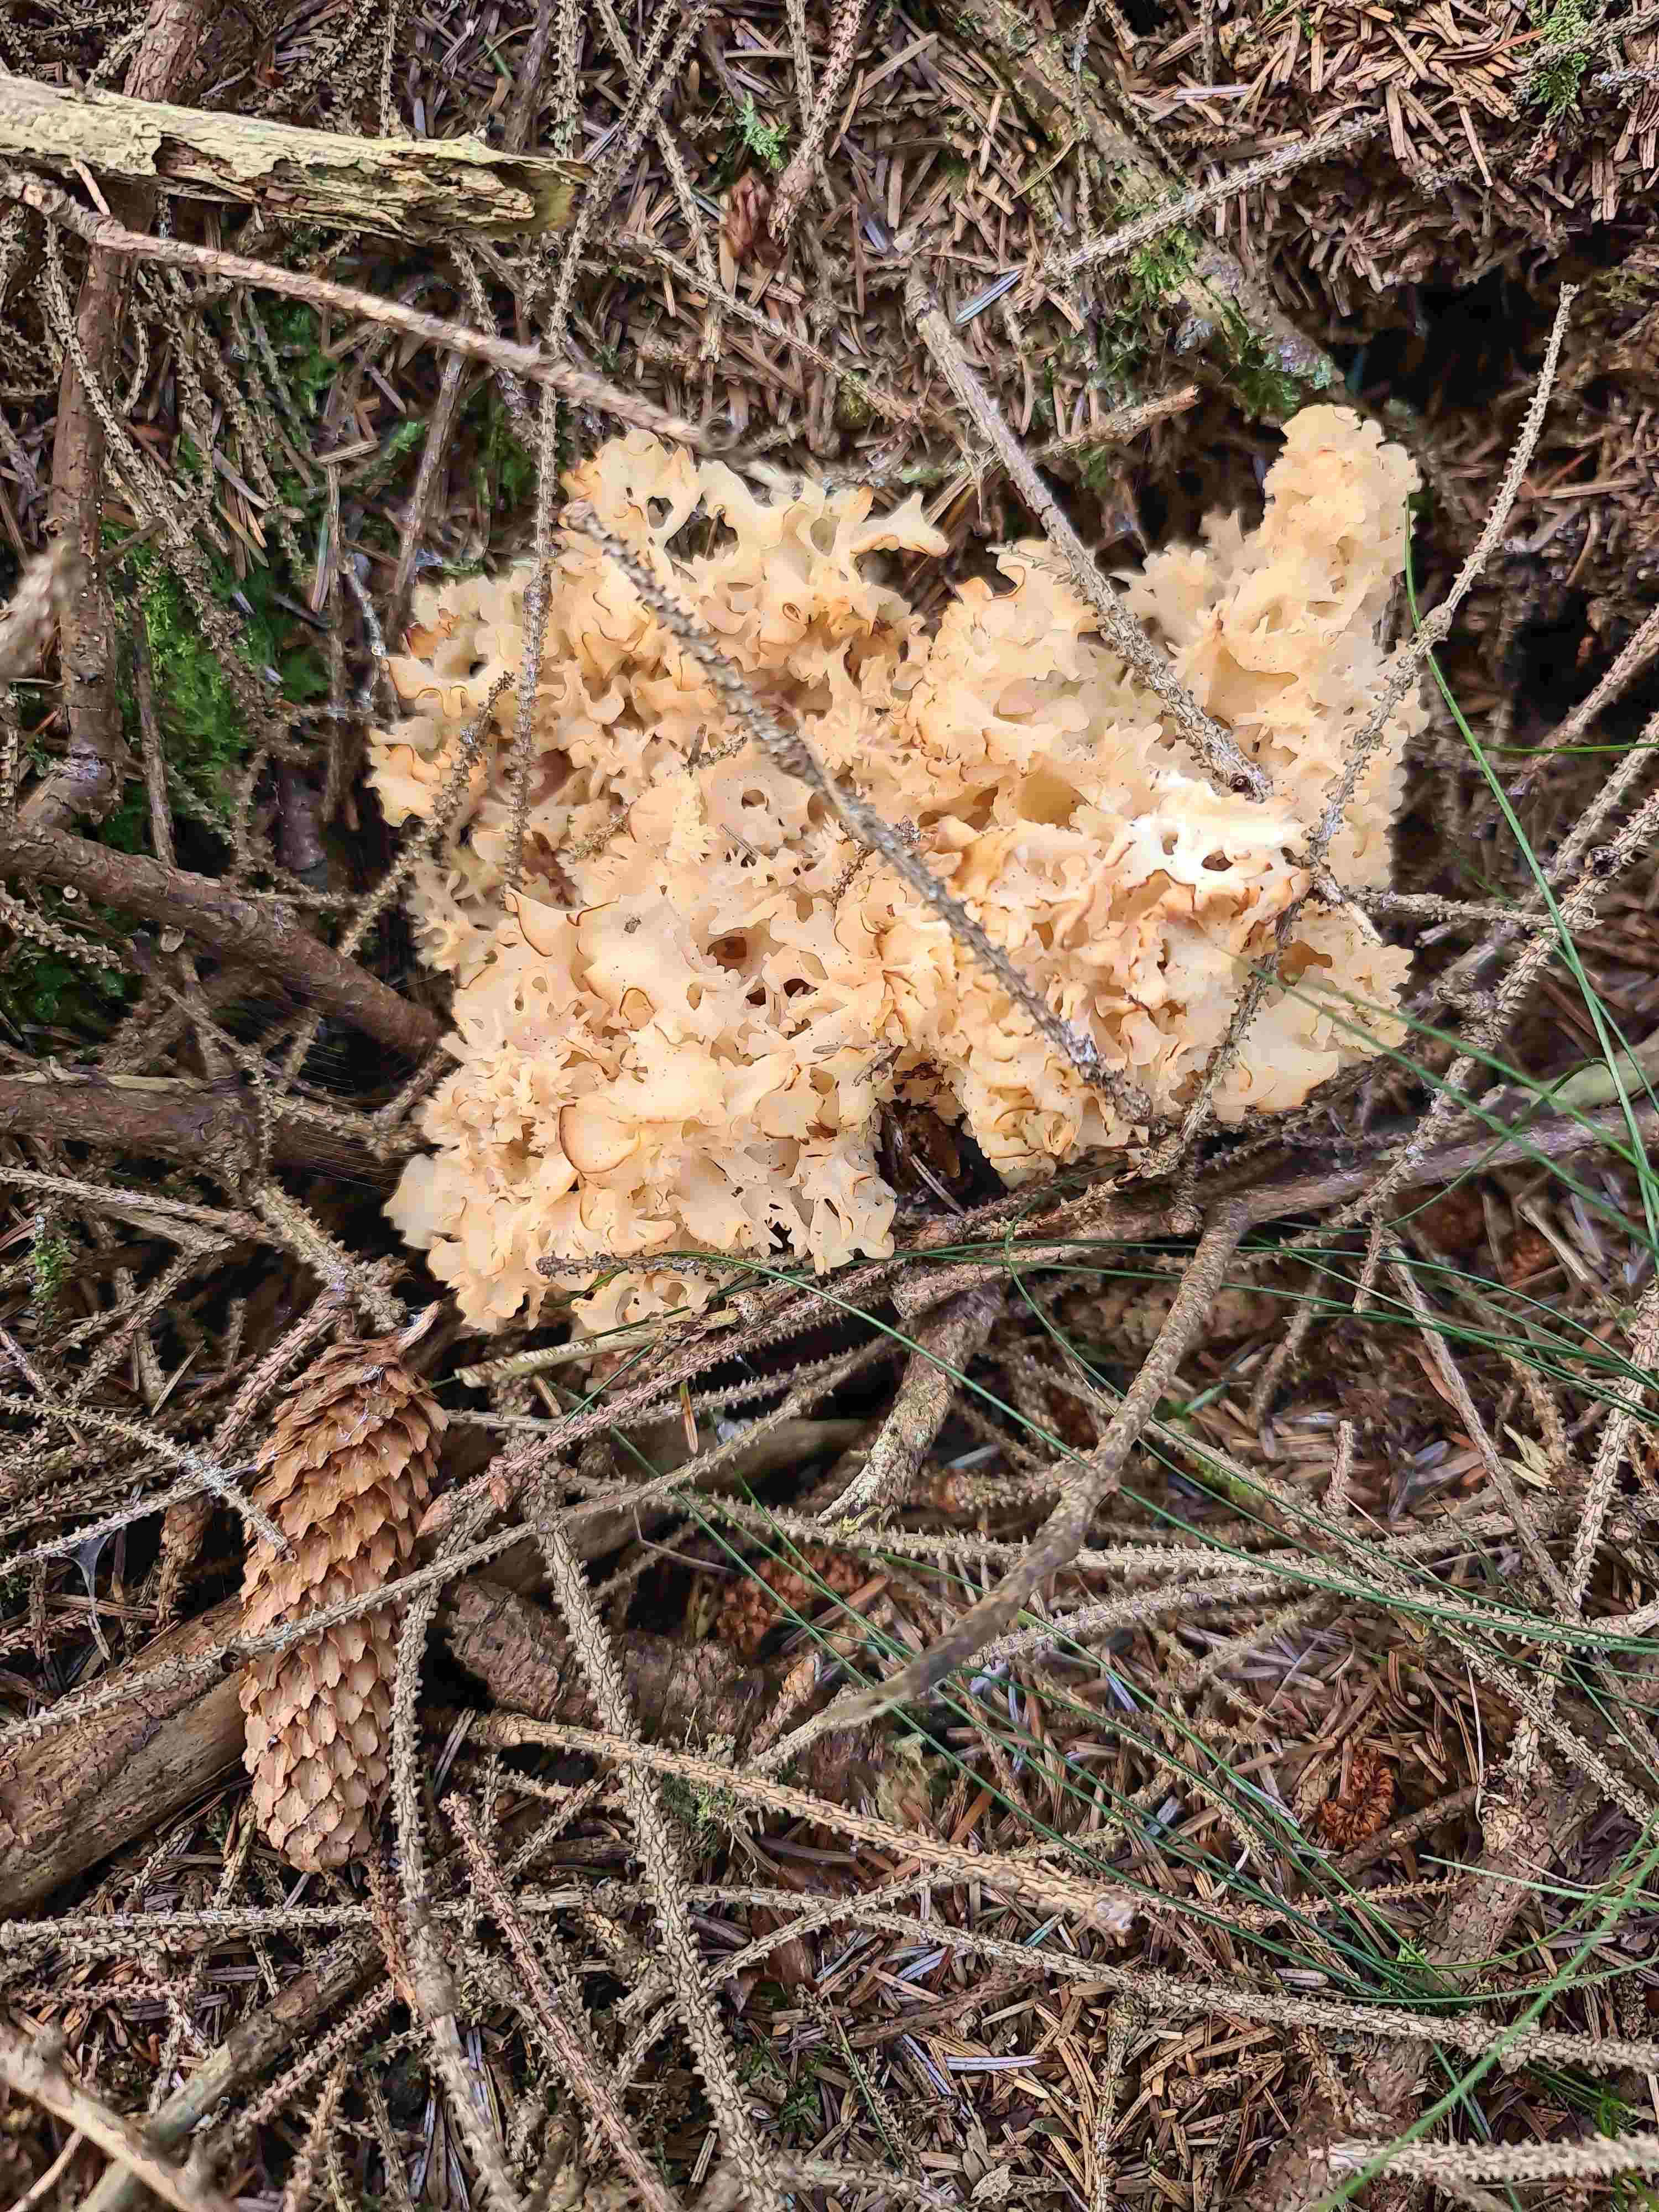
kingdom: Fungi
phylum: Basidiomycota
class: Agaricomycetes
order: Polyporales
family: Sparassidaceae
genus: Sparassis
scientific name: Sparassis crispa
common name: kruset blomkålssvamp
